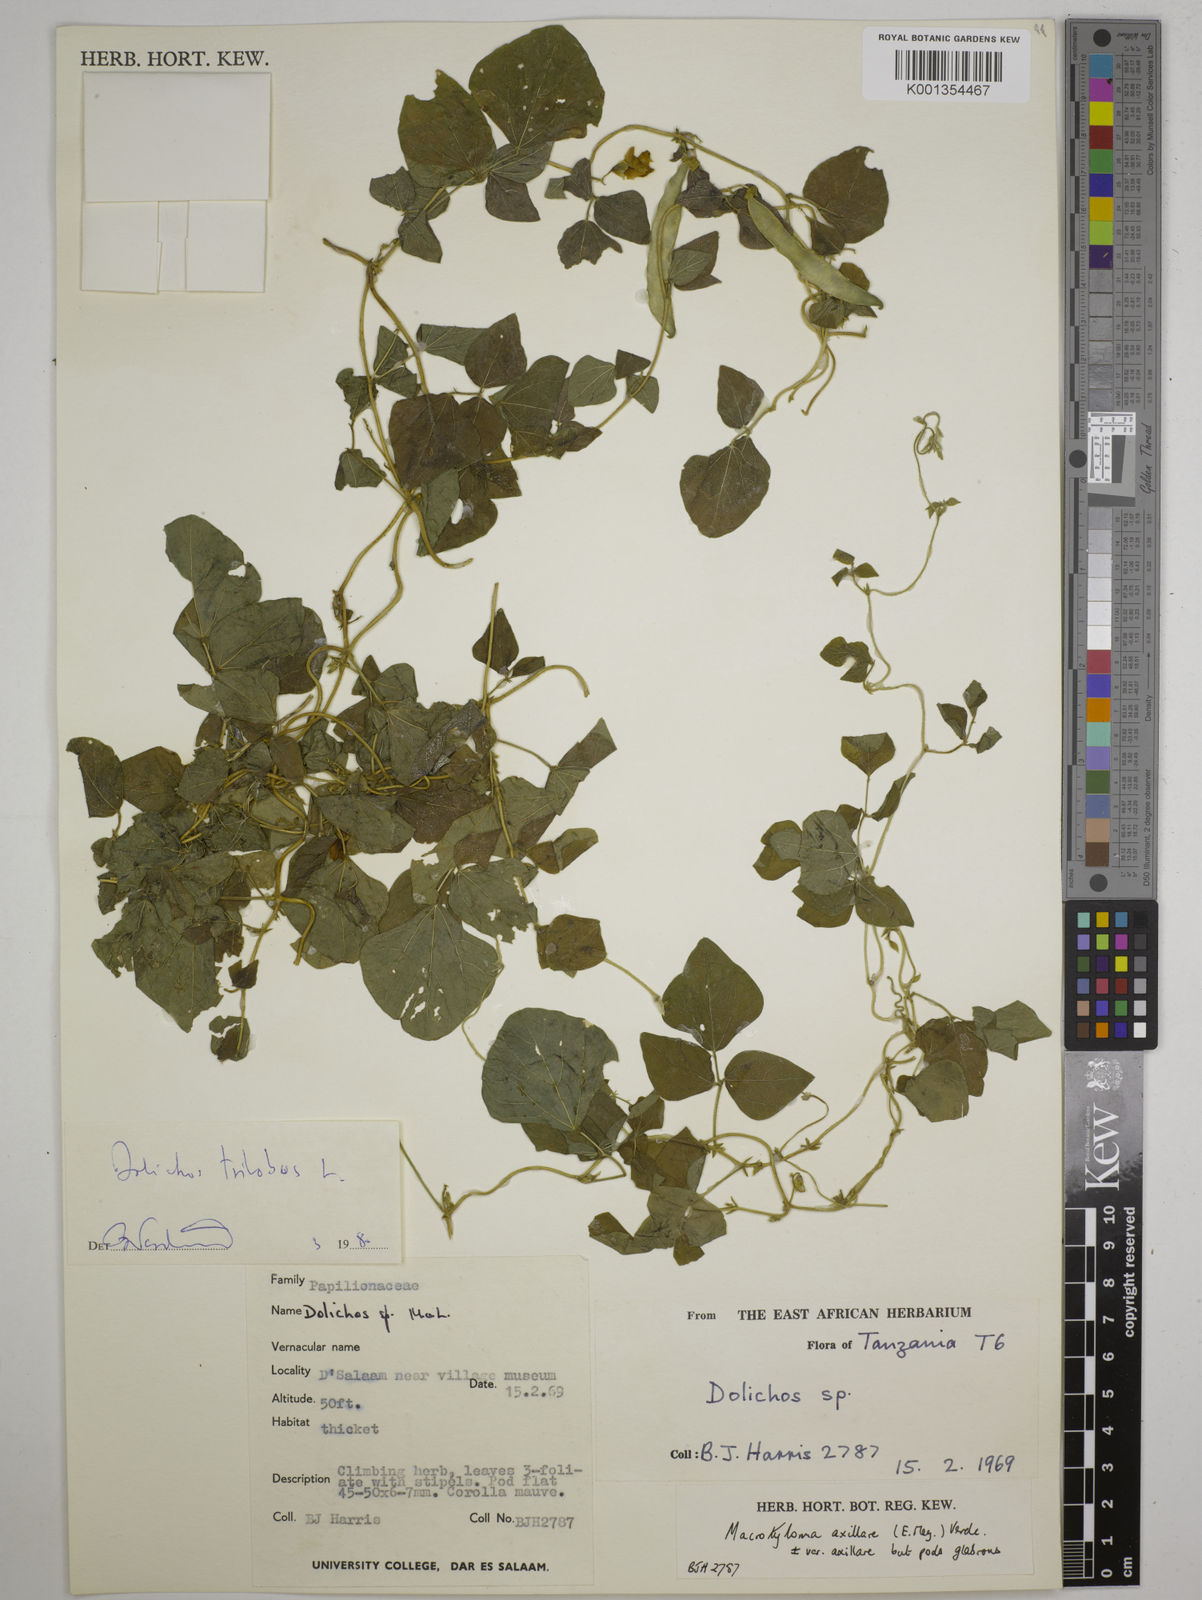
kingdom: Plantae
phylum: Tracheophyta
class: Magnoliopsida
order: Fabales
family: Fabaceae
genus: Dolichos
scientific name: Dolichos
